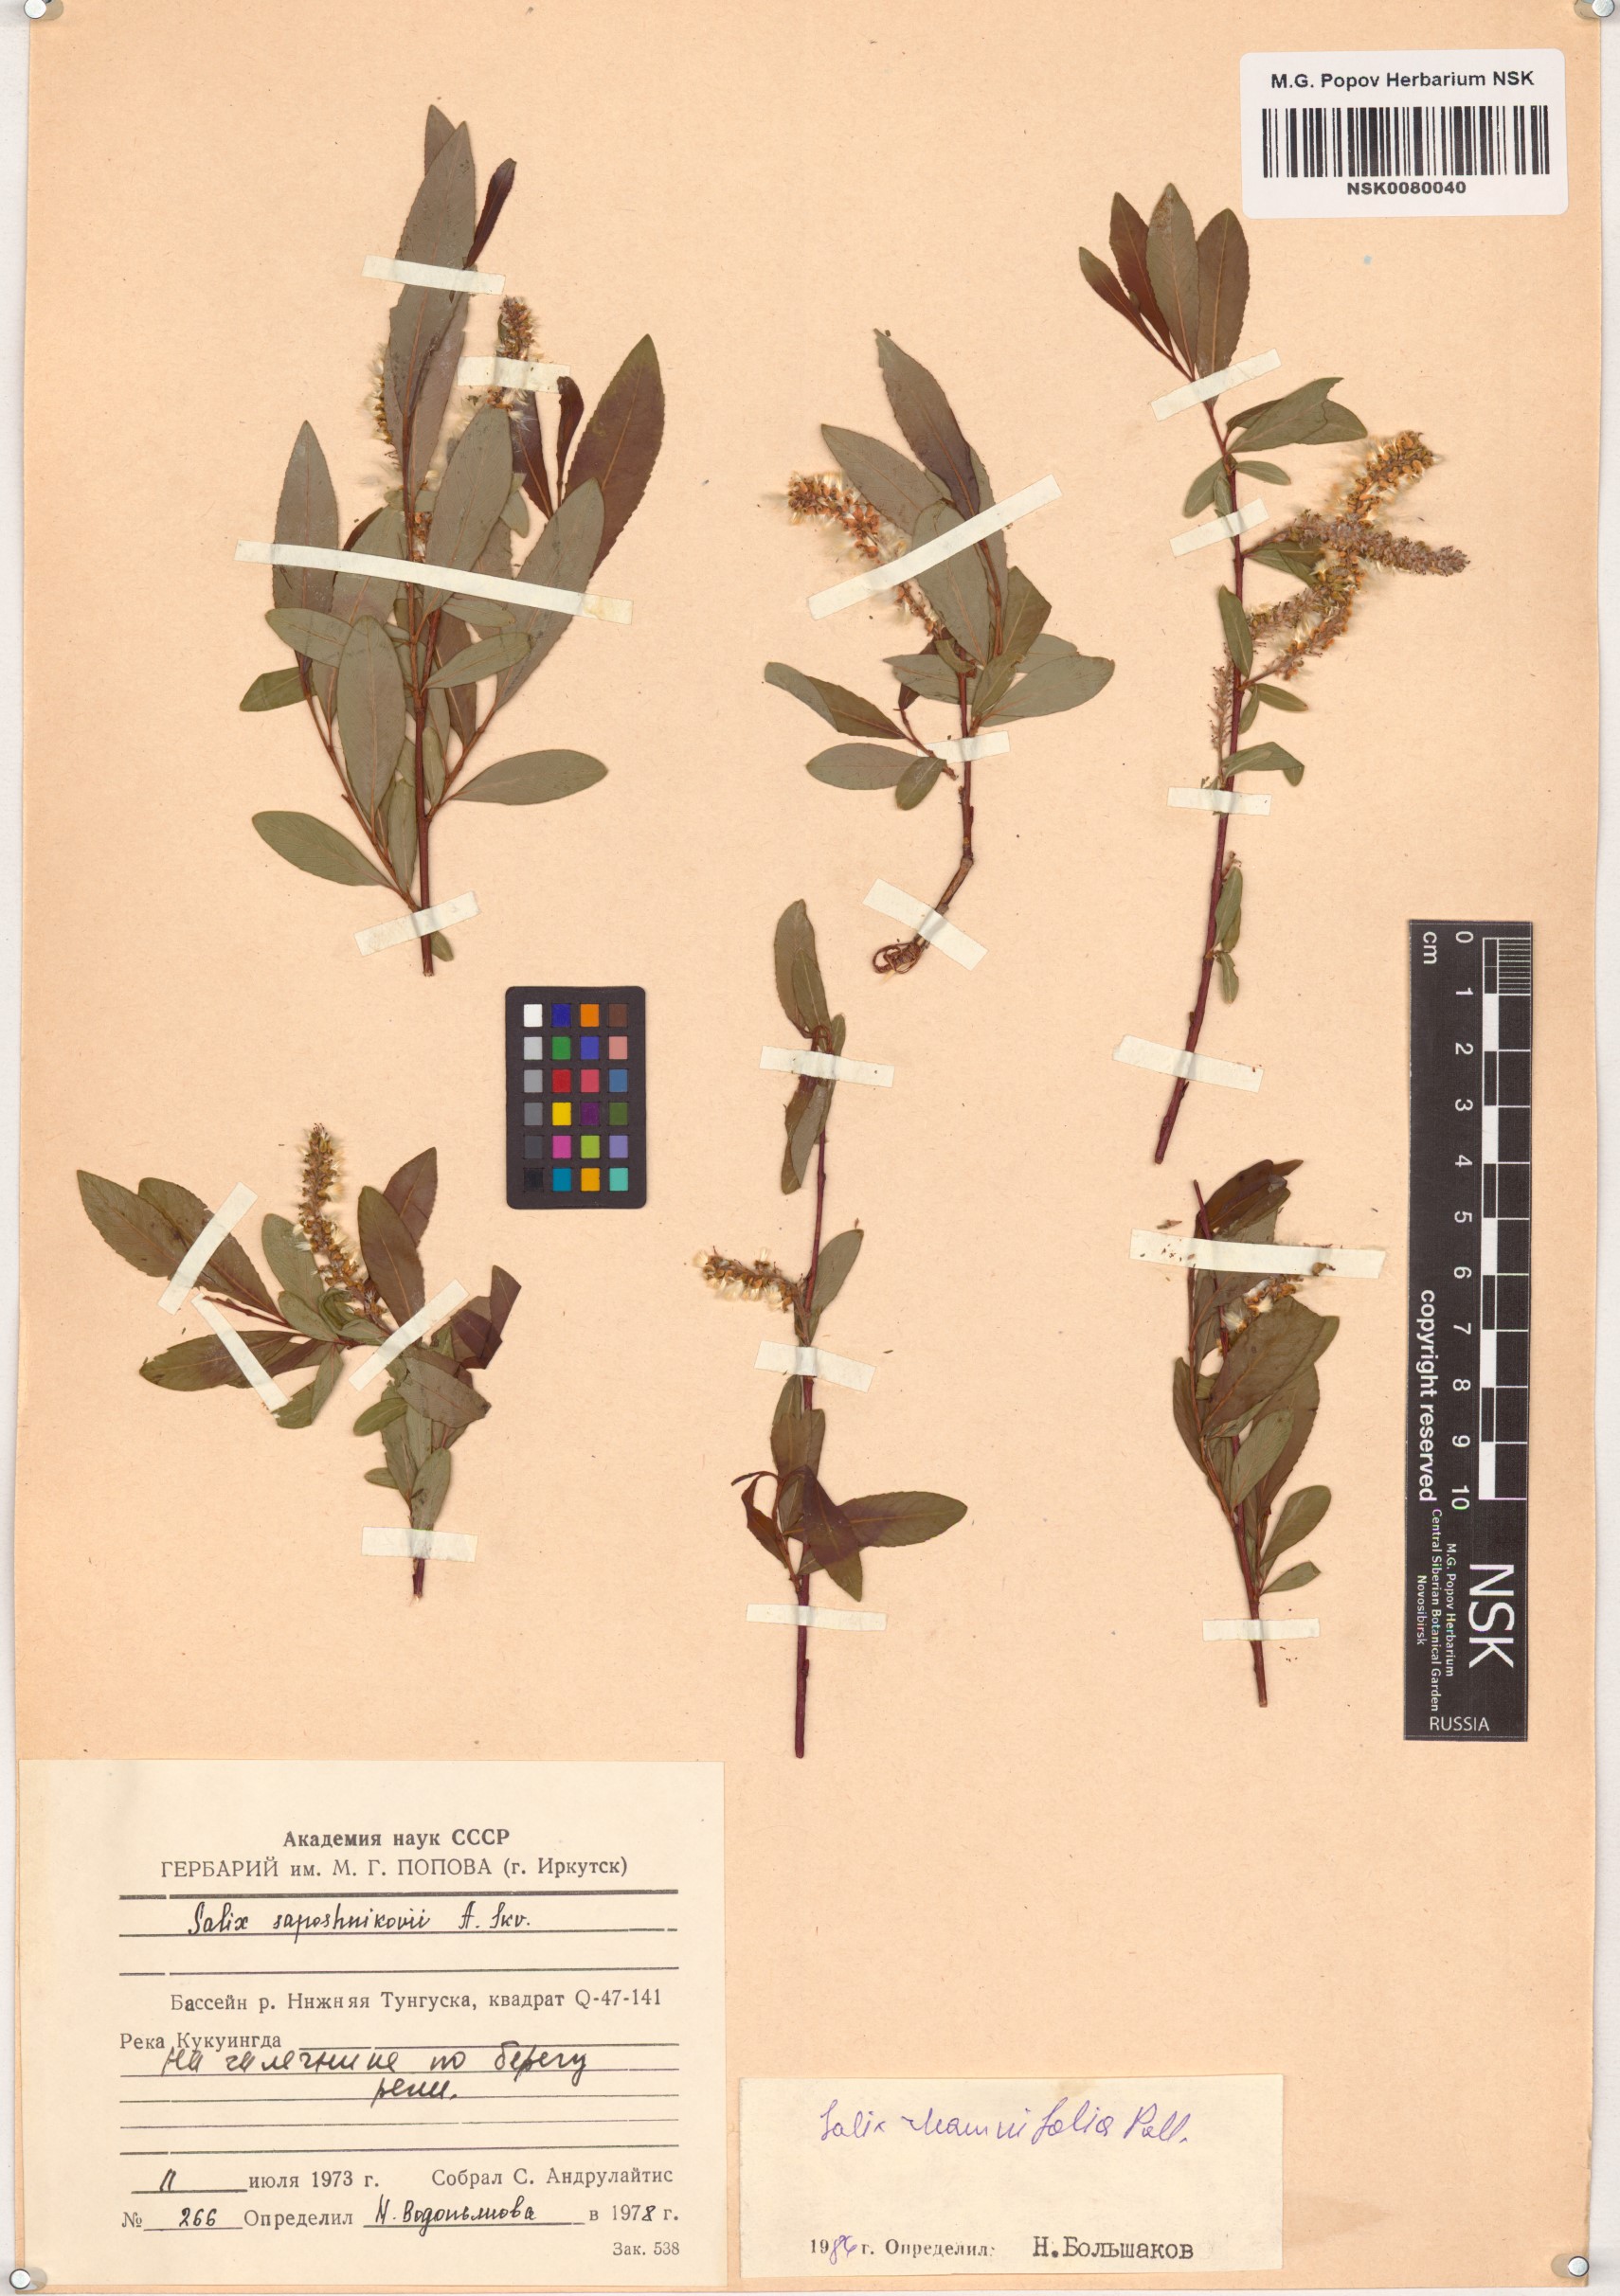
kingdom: Plantae
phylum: Tracheophyta
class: Magnoliopsida
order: Malpighiales
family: Salicaceae
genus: Salix
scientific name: Salix rhamnifolia
